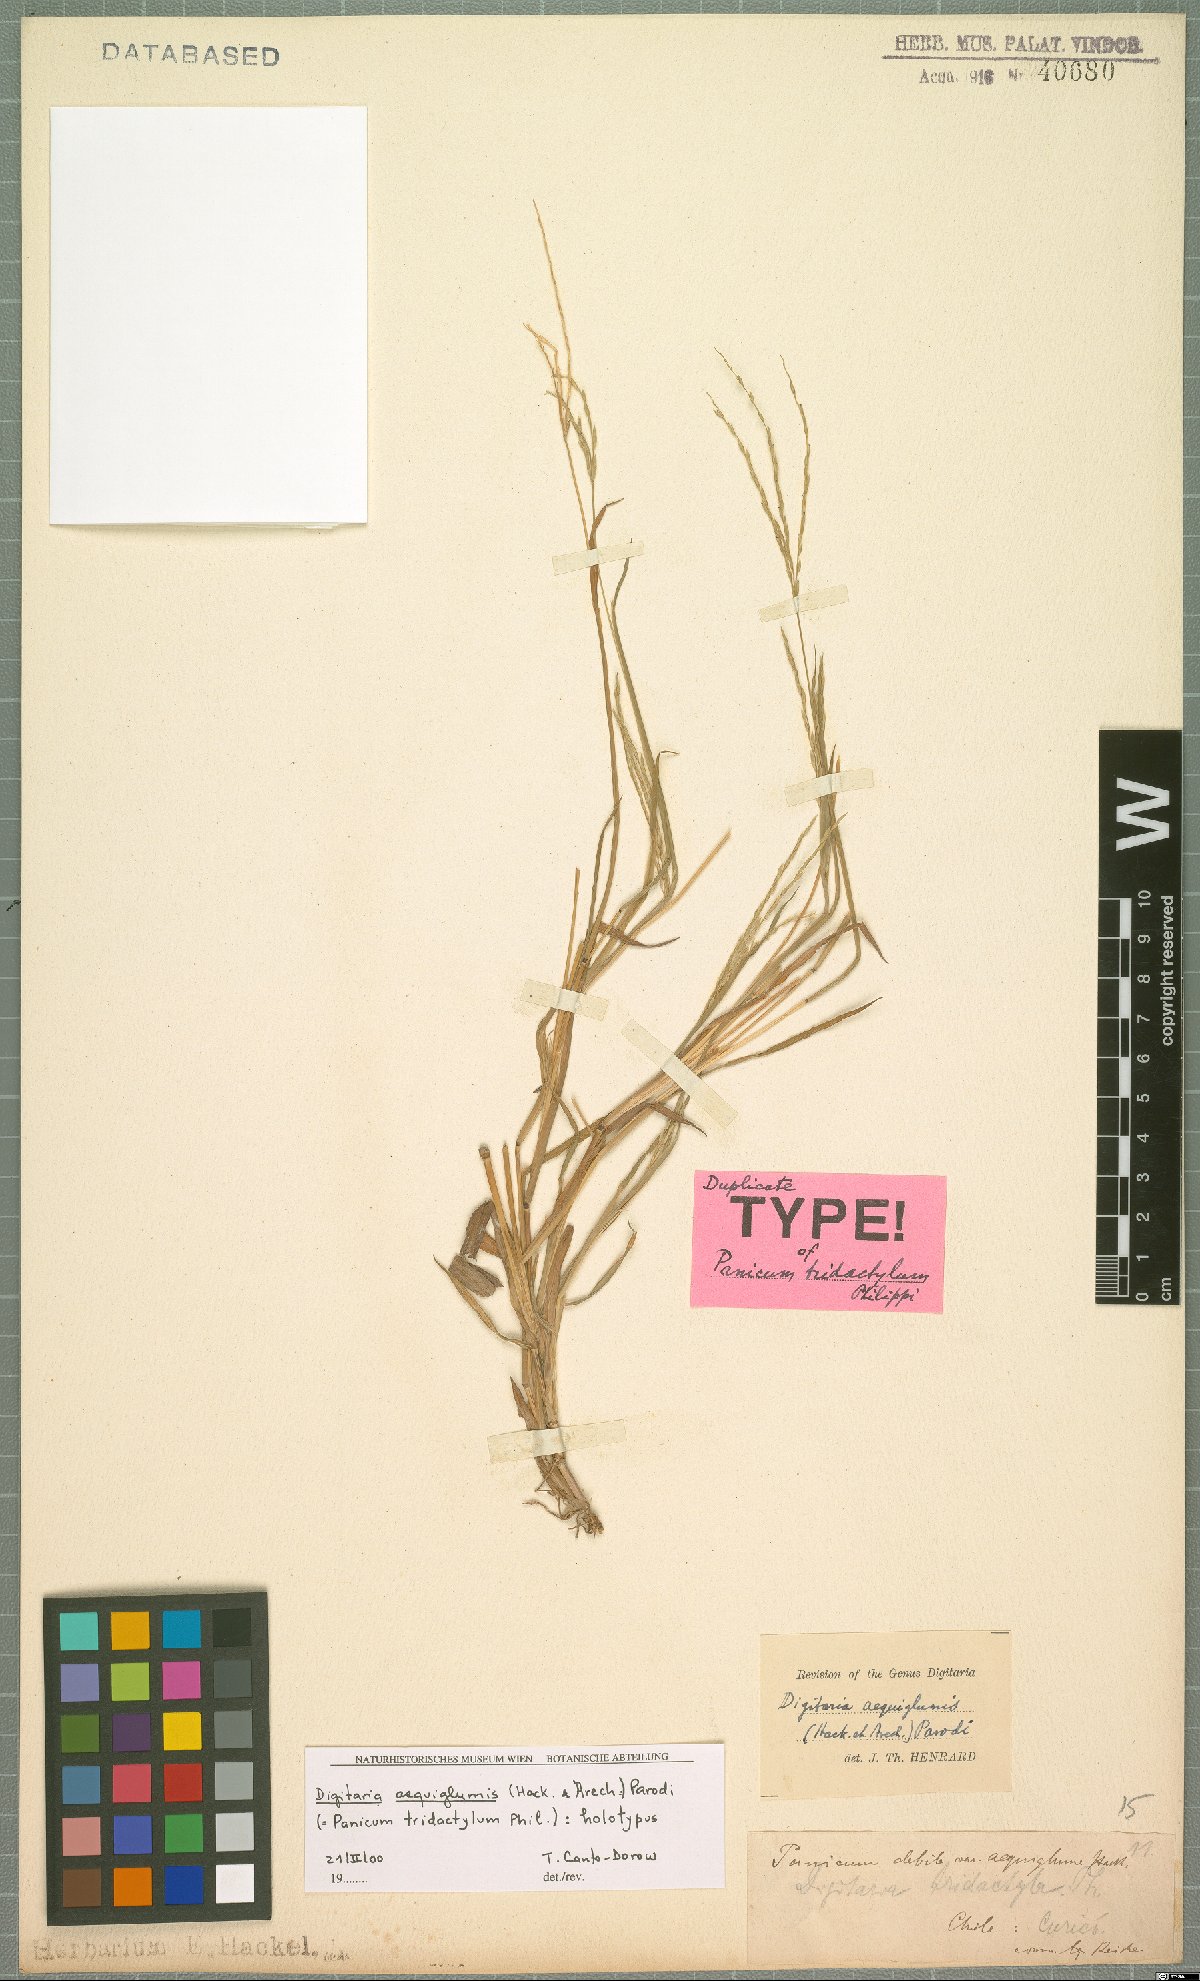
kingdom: Plantae
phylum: Tracheophyta
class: Liliopsida
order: Poales
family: Poaceae
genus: Digitaria
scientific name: Digitaria aequiglumis
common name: Argentinian crabgrass
